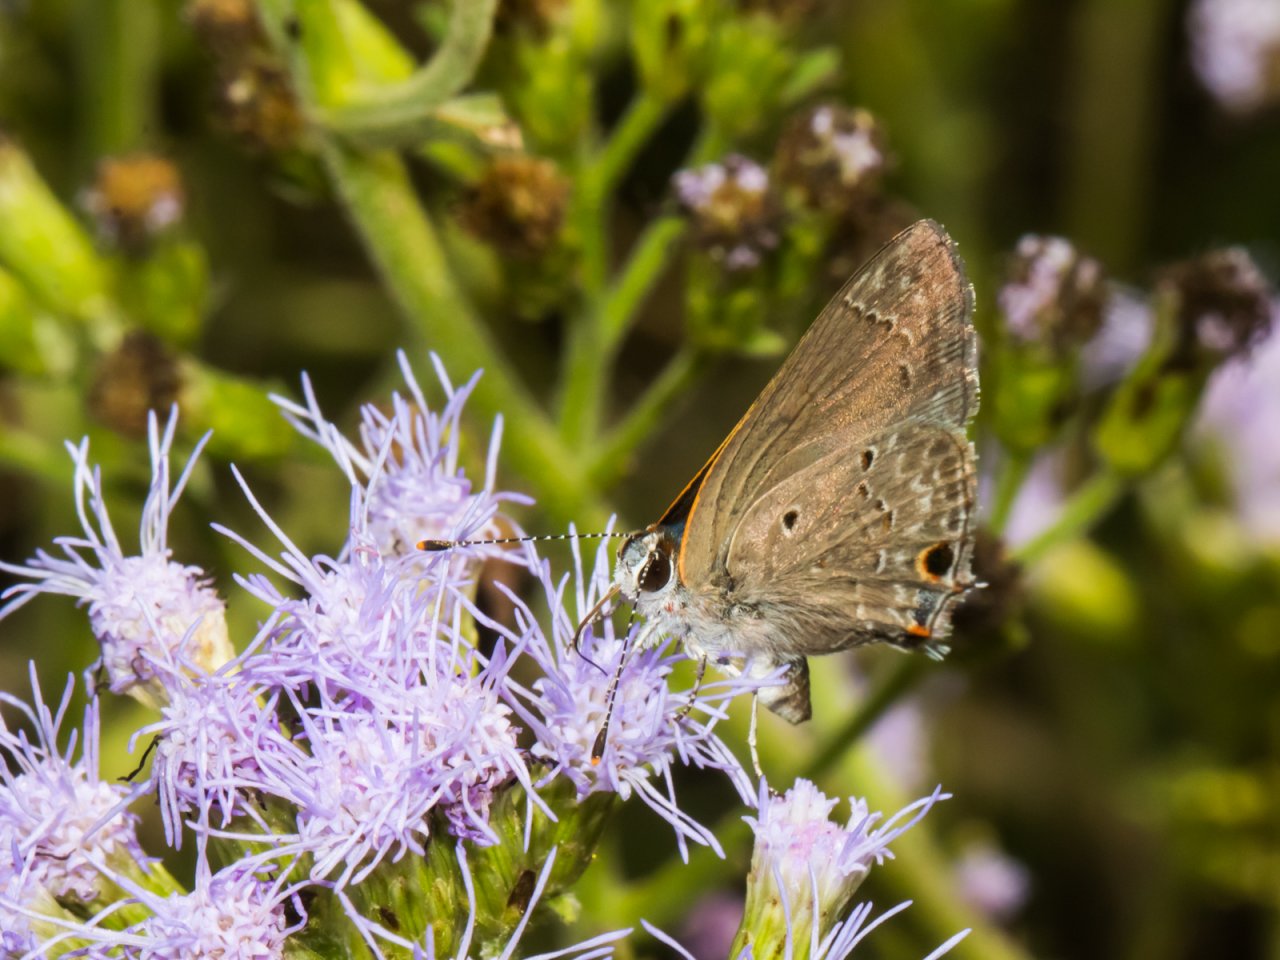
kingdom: Animalia
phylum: Arthropoda
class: Insecta
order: Lepidoptera
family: Lycaenidae
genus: Callicista
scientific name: Callicista columella
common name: Mallow Scrub-Hairstreak
